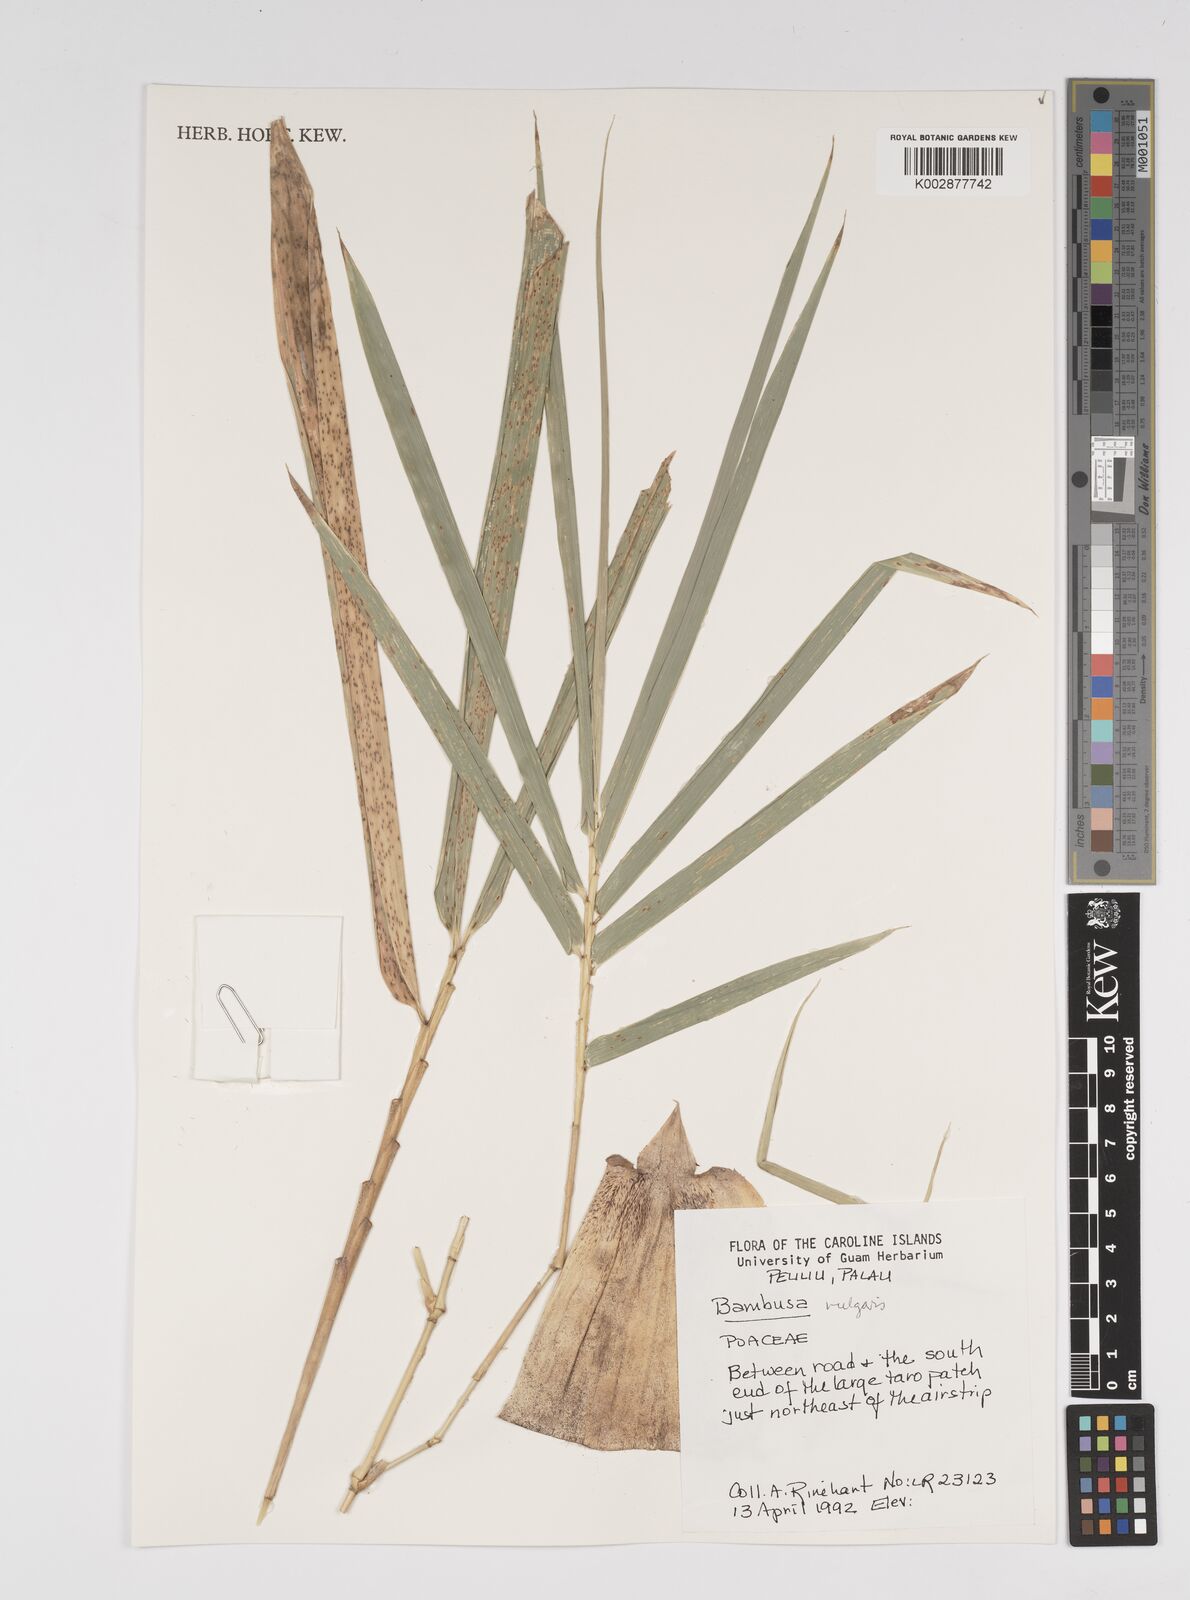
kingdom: Plantae
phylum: Tracheophyta
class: Liliopsida
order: Poales
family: Poaceae
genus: Bambusa
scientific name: Bambusa vulgaris
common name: Common bamboo
